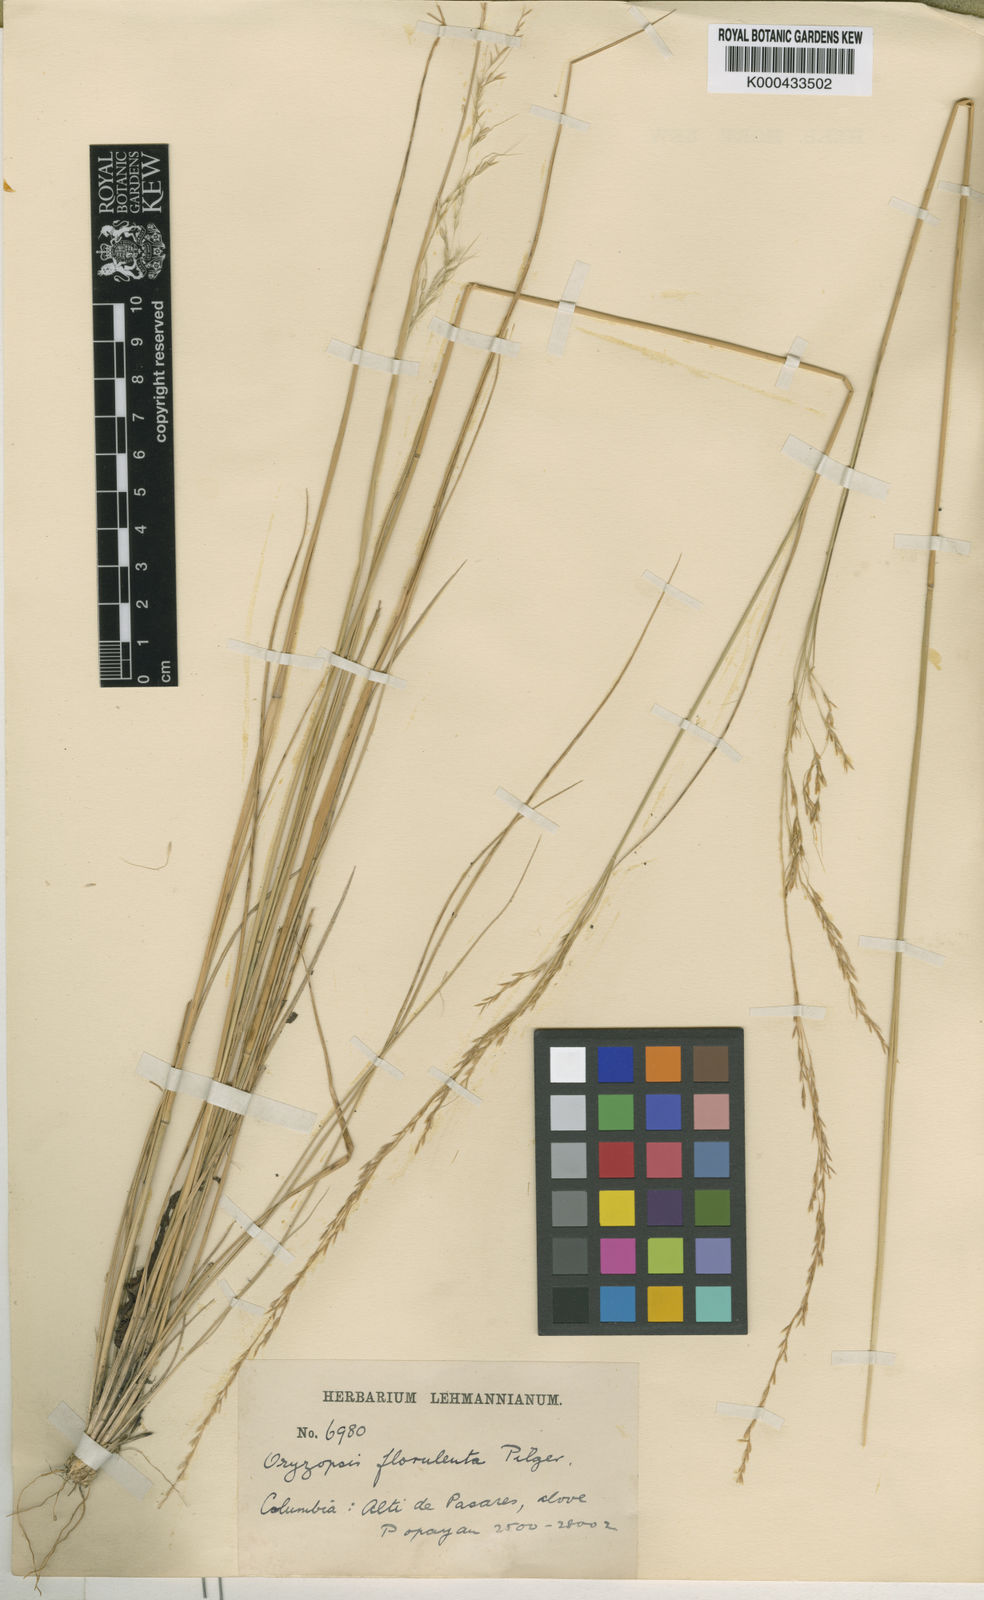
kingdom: Plantae
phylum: Tracheophyta
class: Liliopsida
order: Poales
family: Poaceae
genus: Nassella
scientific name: Nassella caespitosa
